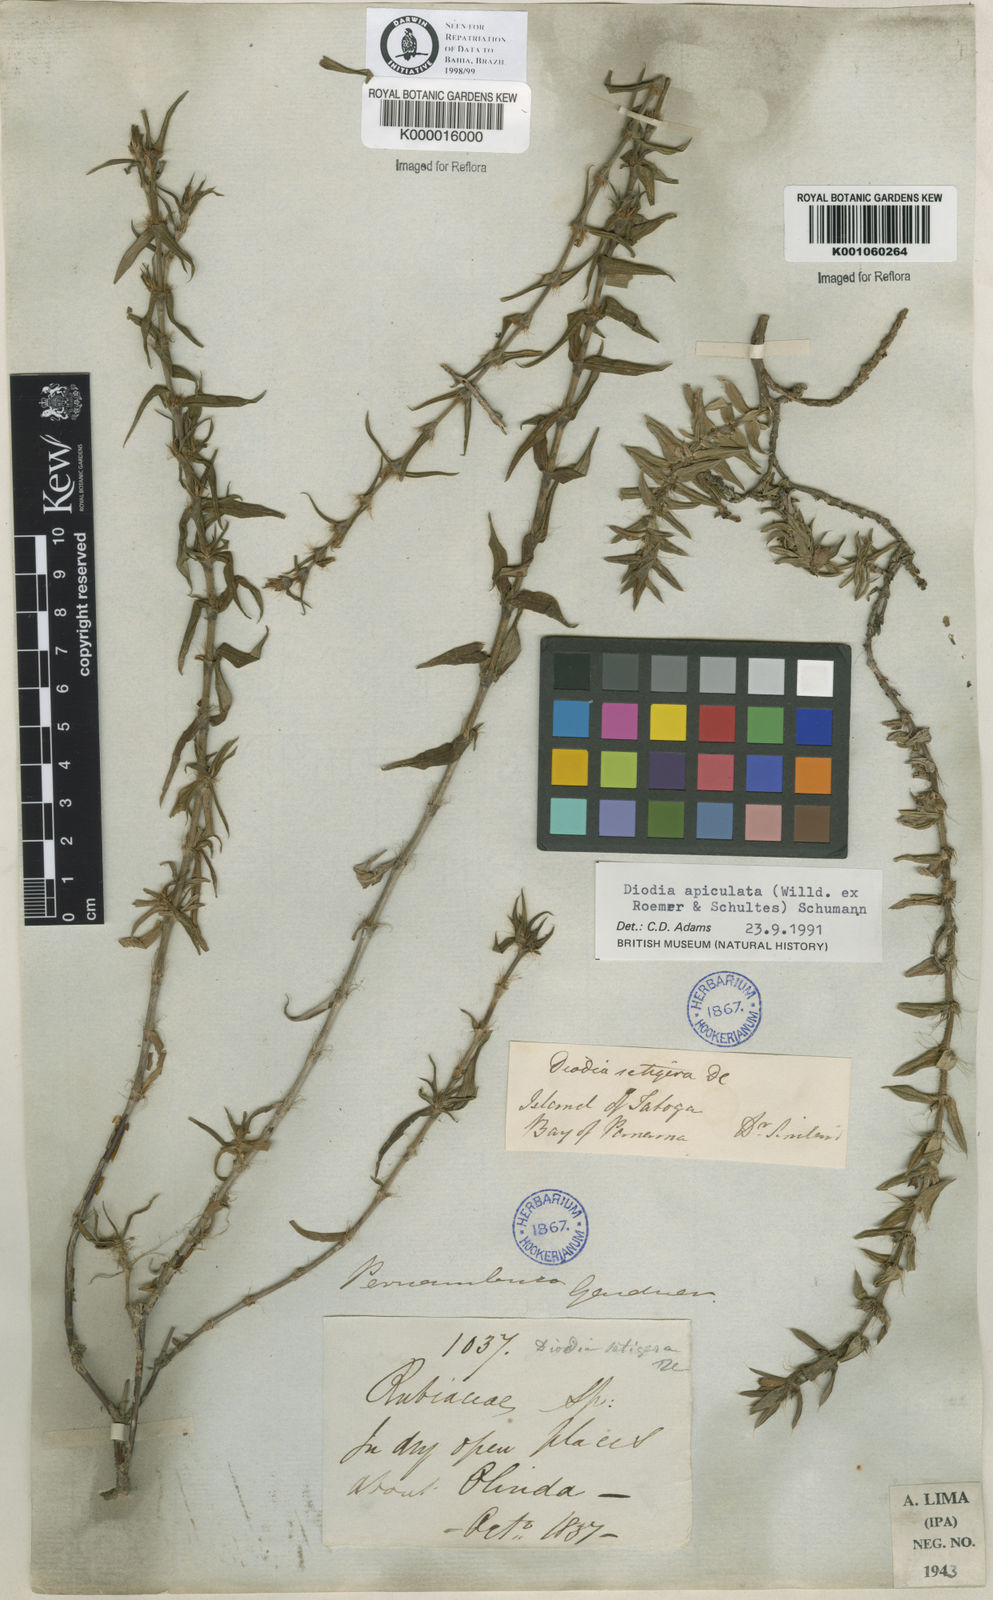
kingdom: Plantae
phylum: Tracheophyta
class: Magnoliopsida
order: Gentianales
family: Rubiaceae
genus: Hexasepalum
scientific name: Hexasepalum apiculatum
